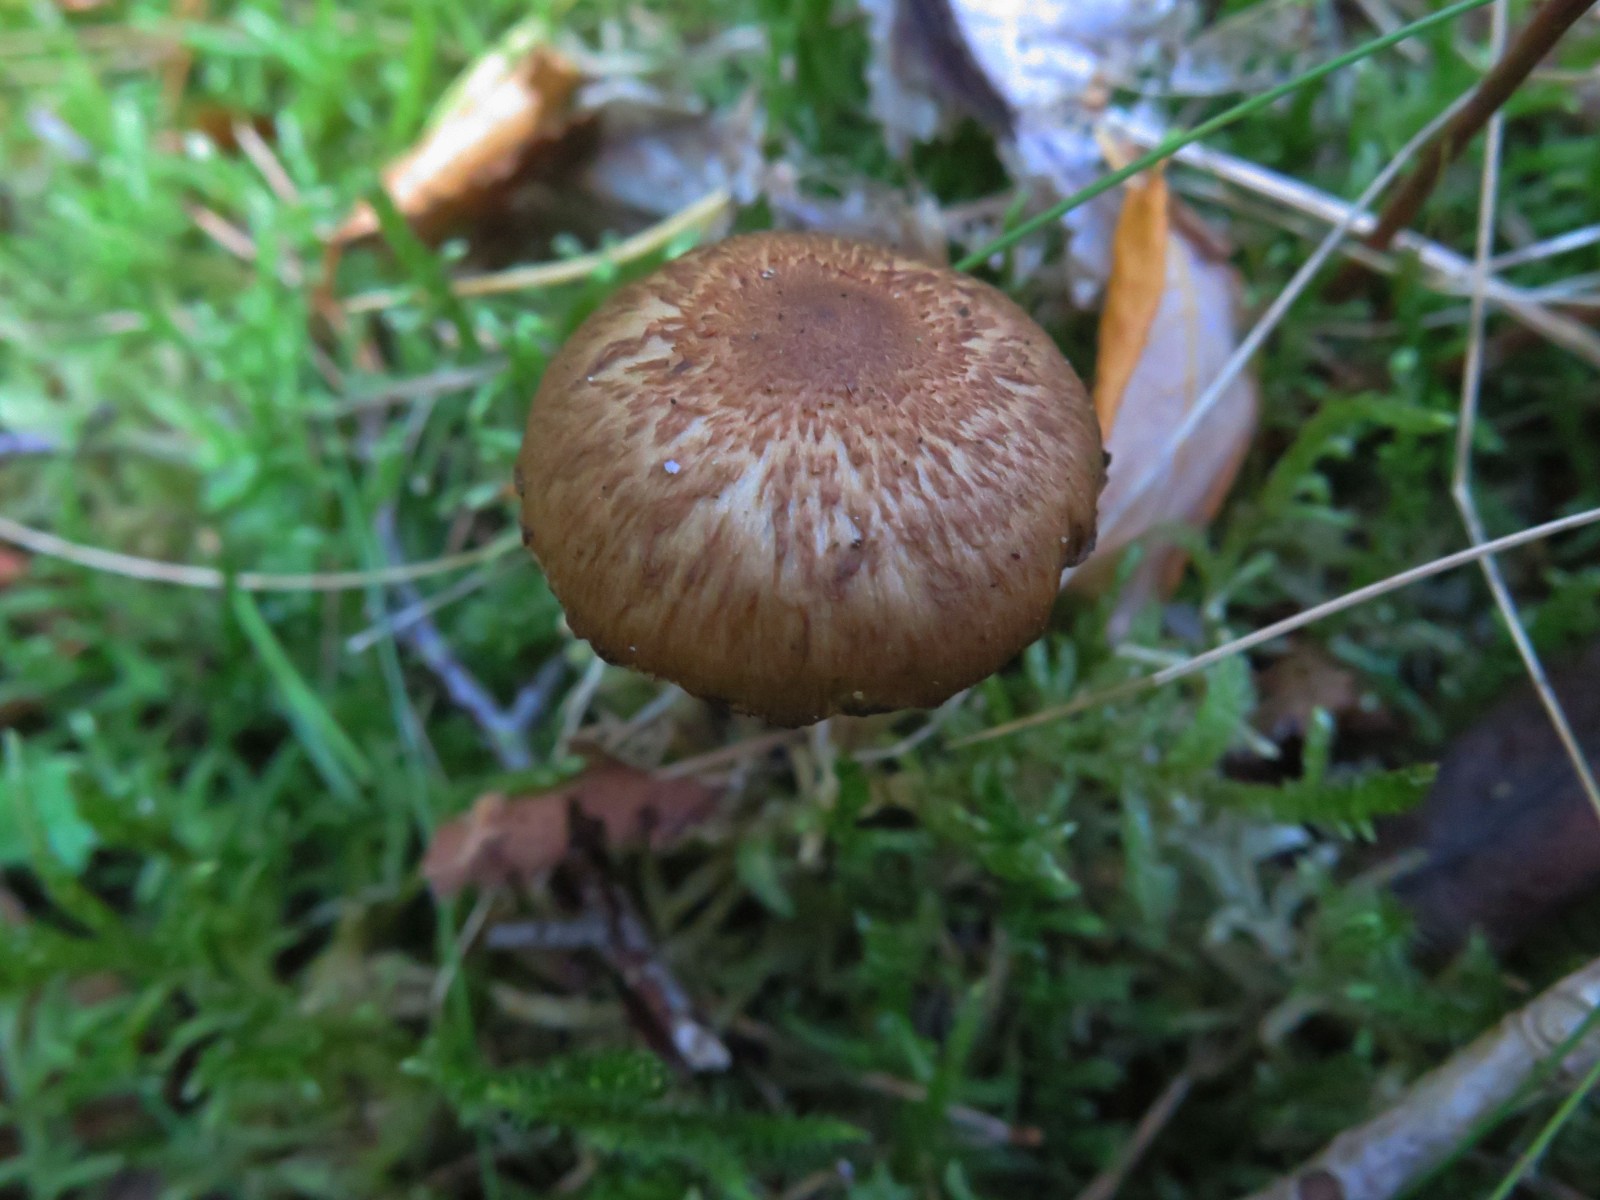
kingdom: Fungi
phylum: Basidiomycota
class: Agaricomycetes
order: Agaricales
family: Inocybaceae
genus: Inocybe
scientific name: Inocybe
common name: trævlhat
